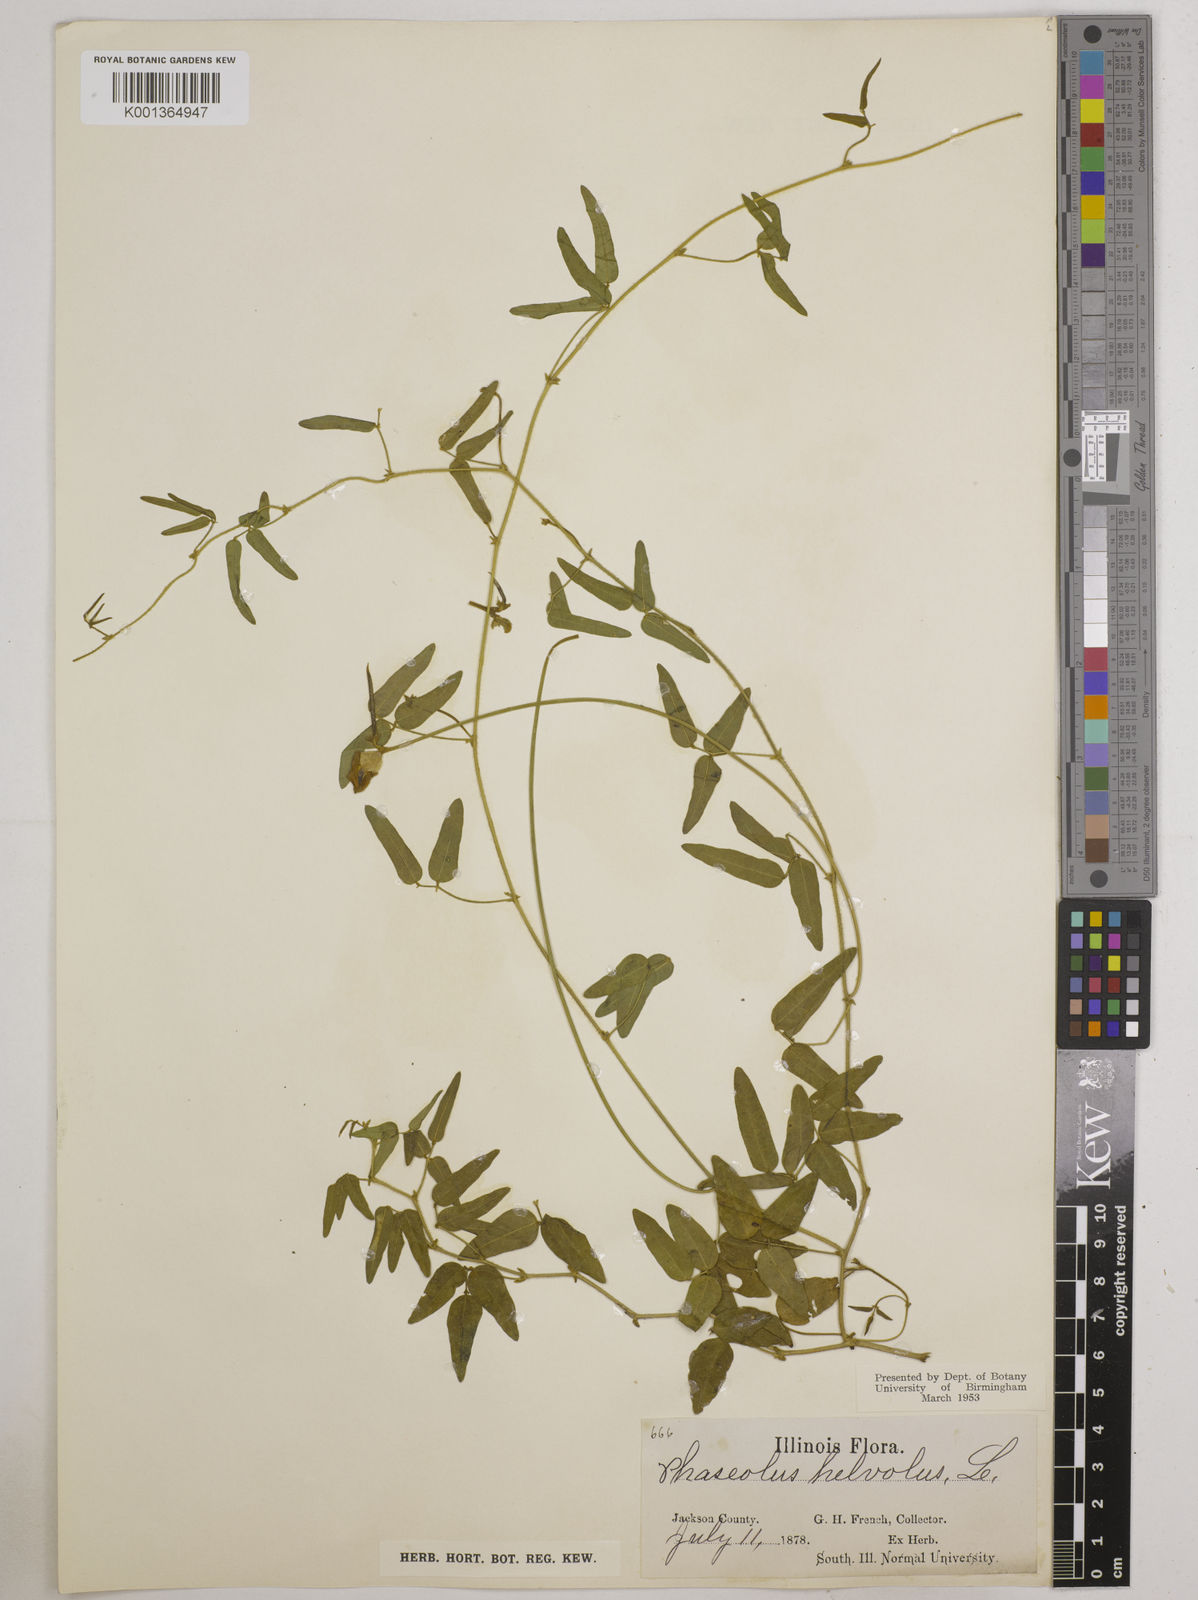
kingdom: Plantae
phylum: Tracheophyta
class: Magnoliopsida
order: Fabales
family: Fabaceae
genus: Strophostyles
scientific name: Strophostyles
